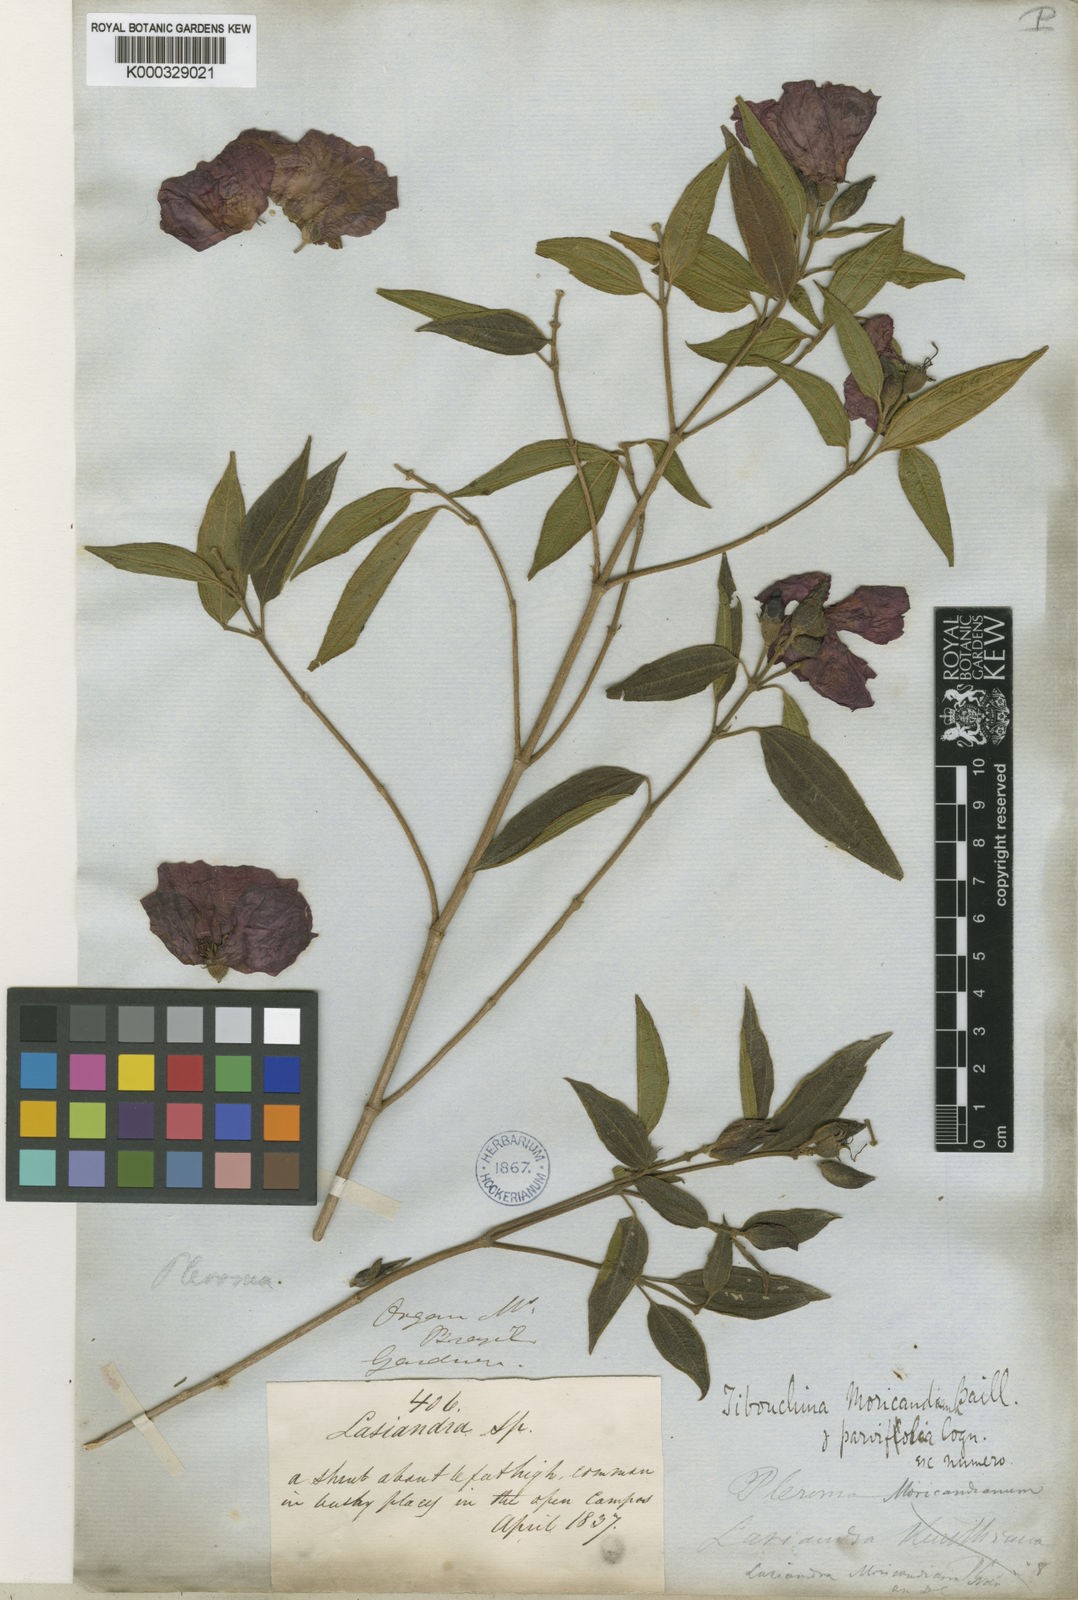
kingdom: Plantae
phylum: Tracheophyta
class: Magnoliopsida
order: Myrtales
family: Melastomataceae
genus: Pleroma
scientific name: Pleroma gaudichaudianum
